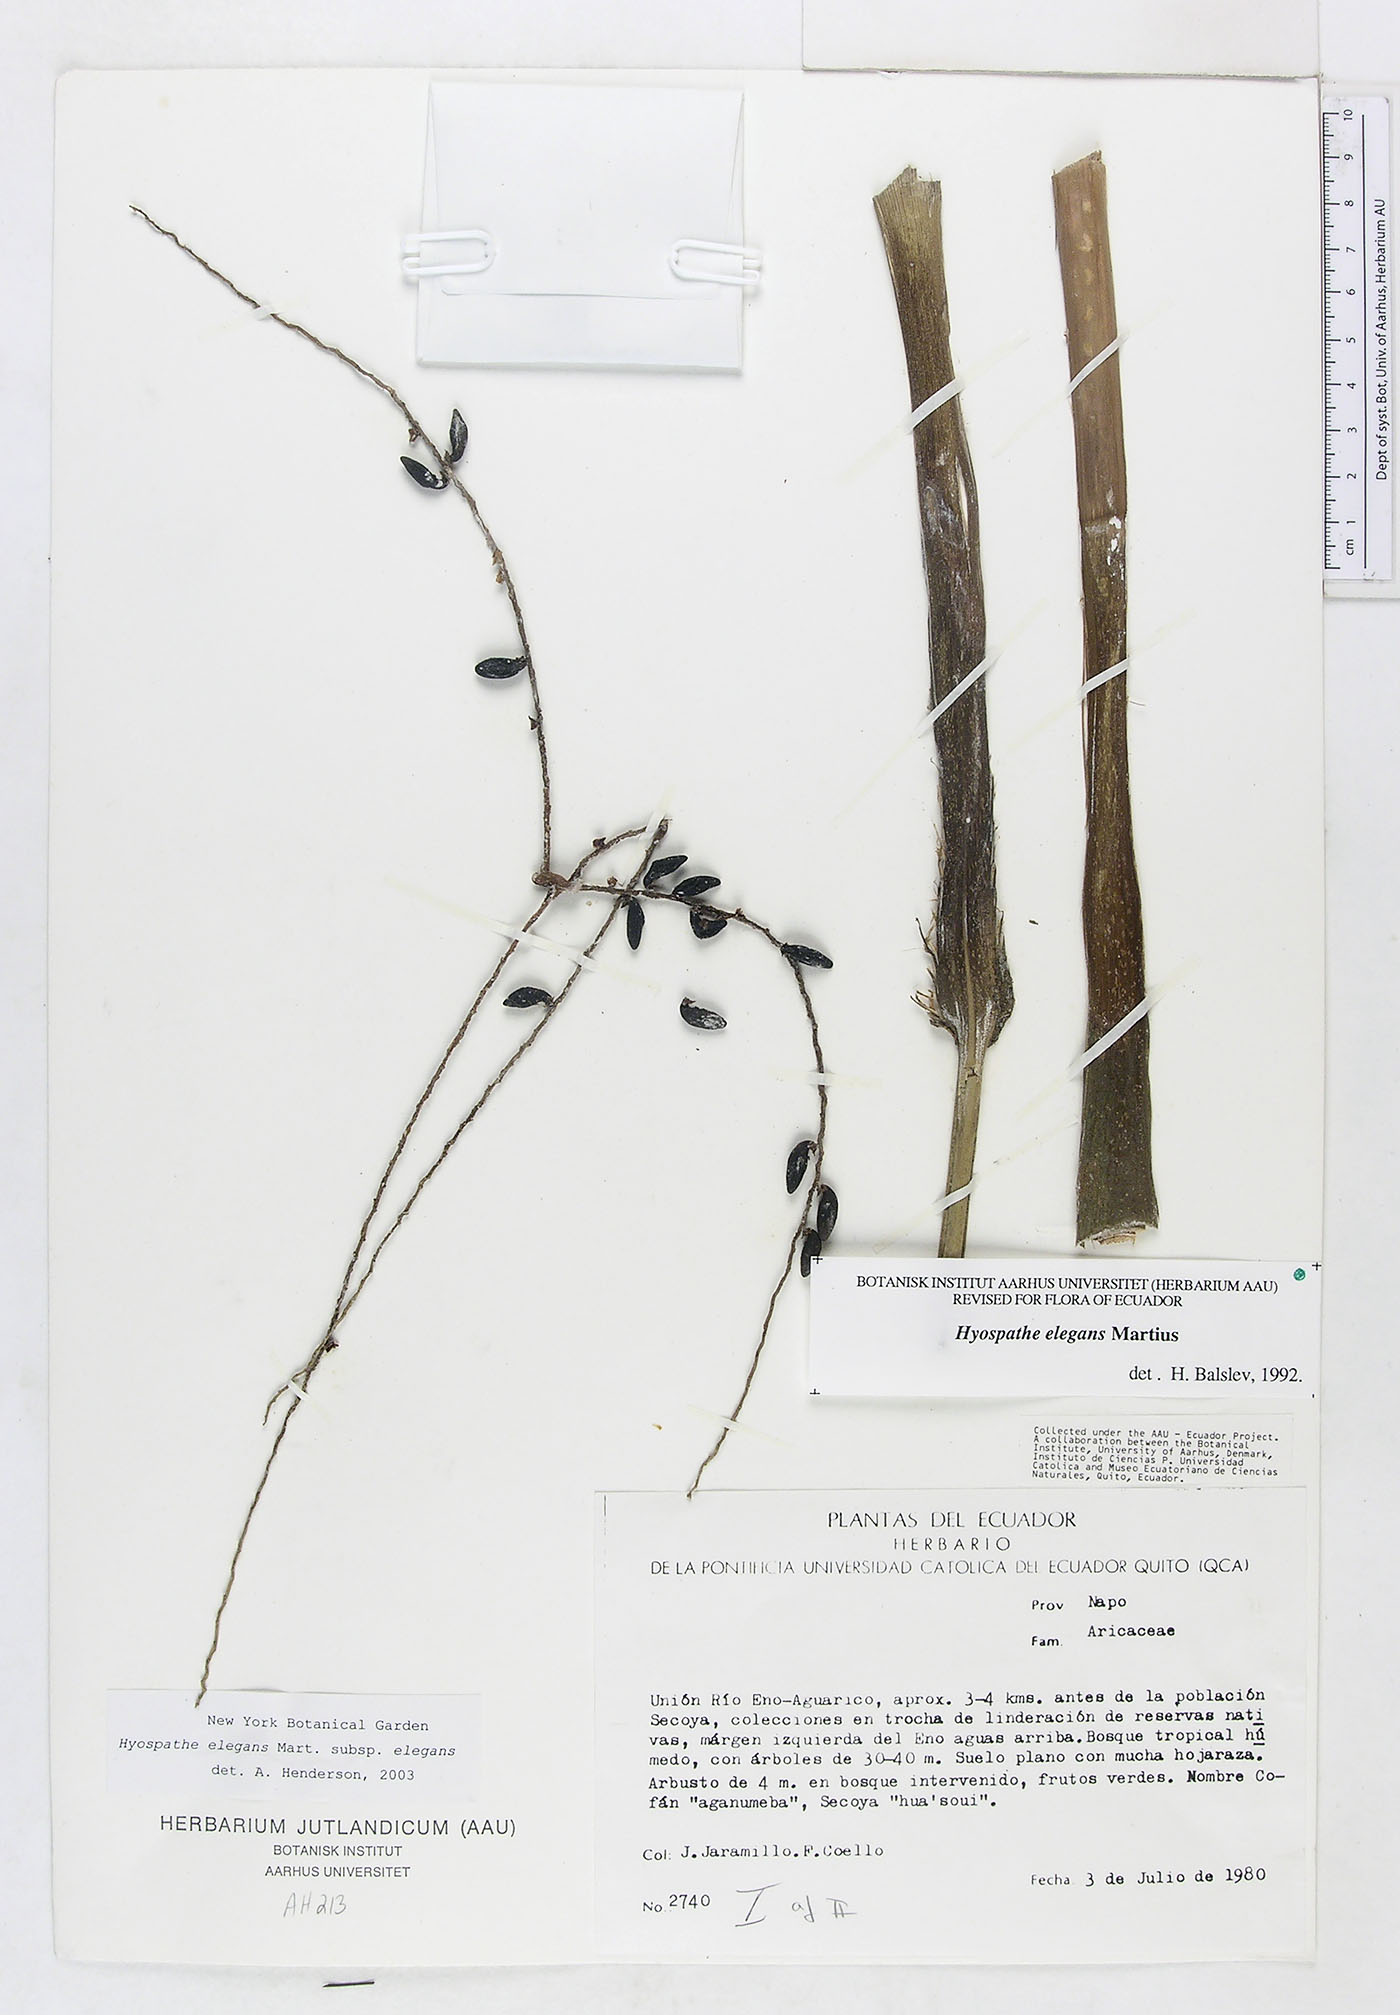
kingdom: Plantae
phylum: Tracheophyta
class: Liliopsida
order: Arecales
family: Arecaceae
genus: Hyospathe
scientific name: Hyospathe elegans
